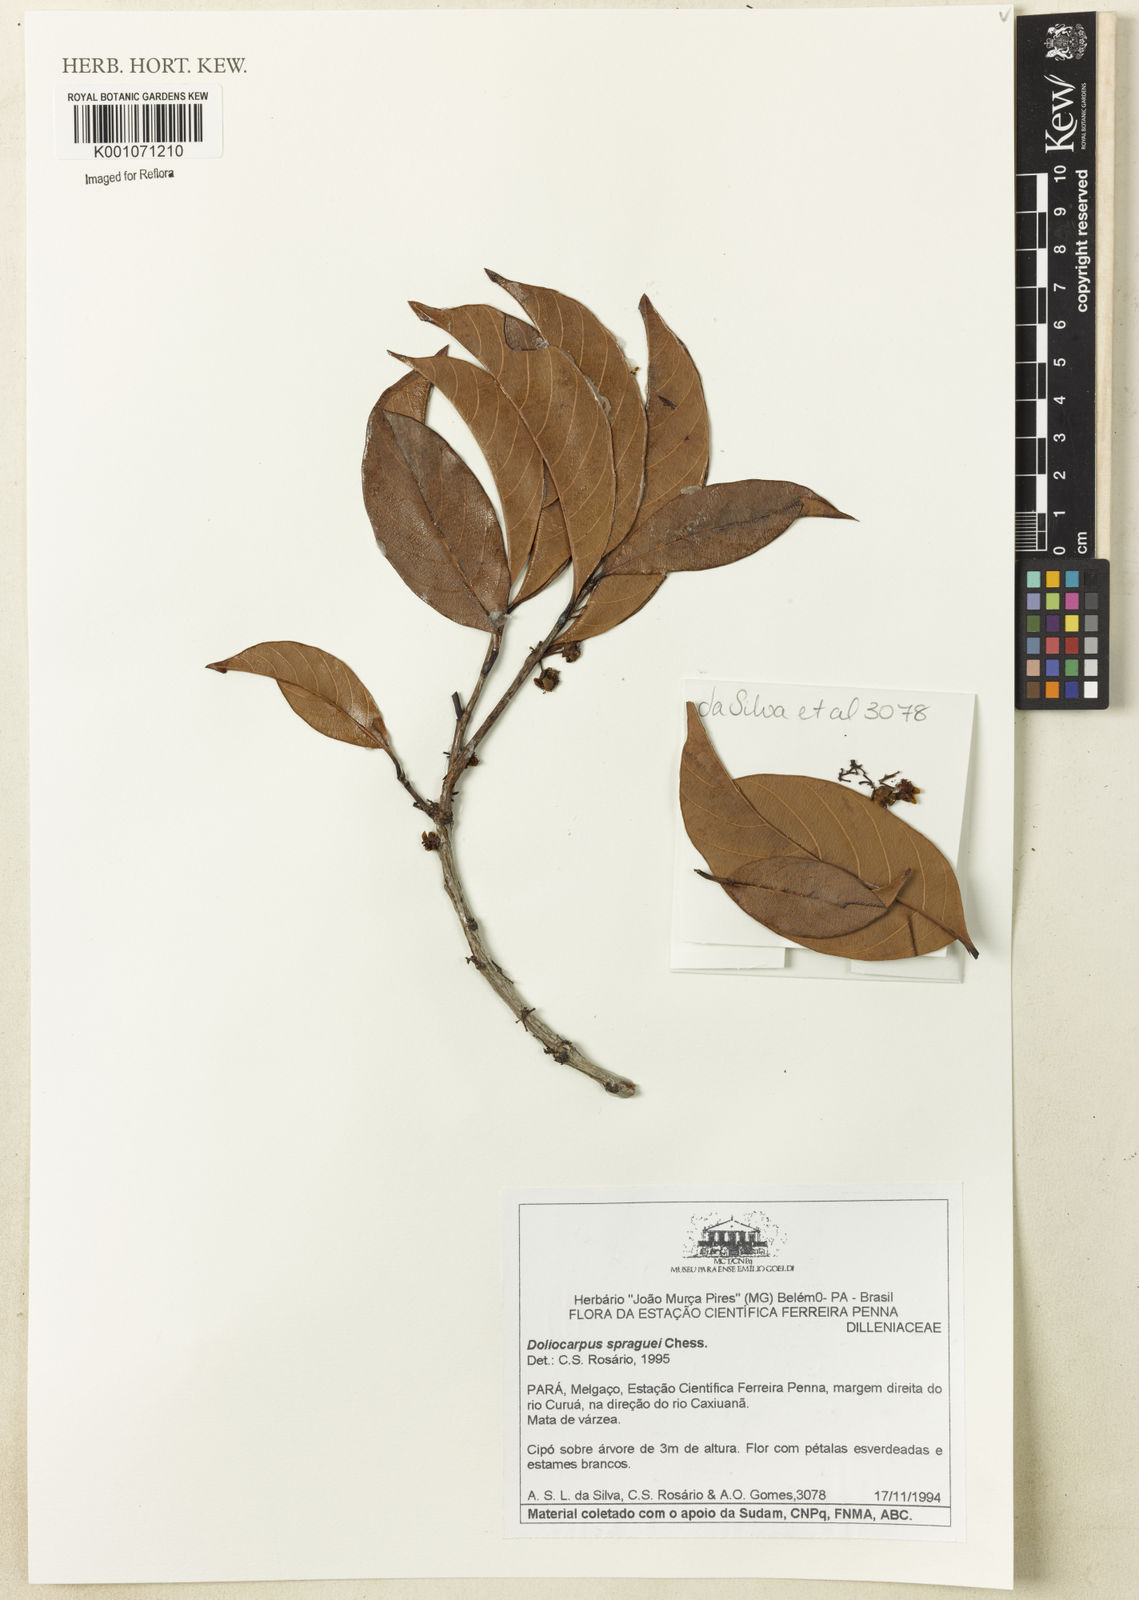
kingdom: Plantae
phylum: Tracheophyta
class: Magnoliopsida
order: Dilleniales
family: Dilleniaceae
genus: Doliocarpus
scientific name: Doliocarpus spraguei
